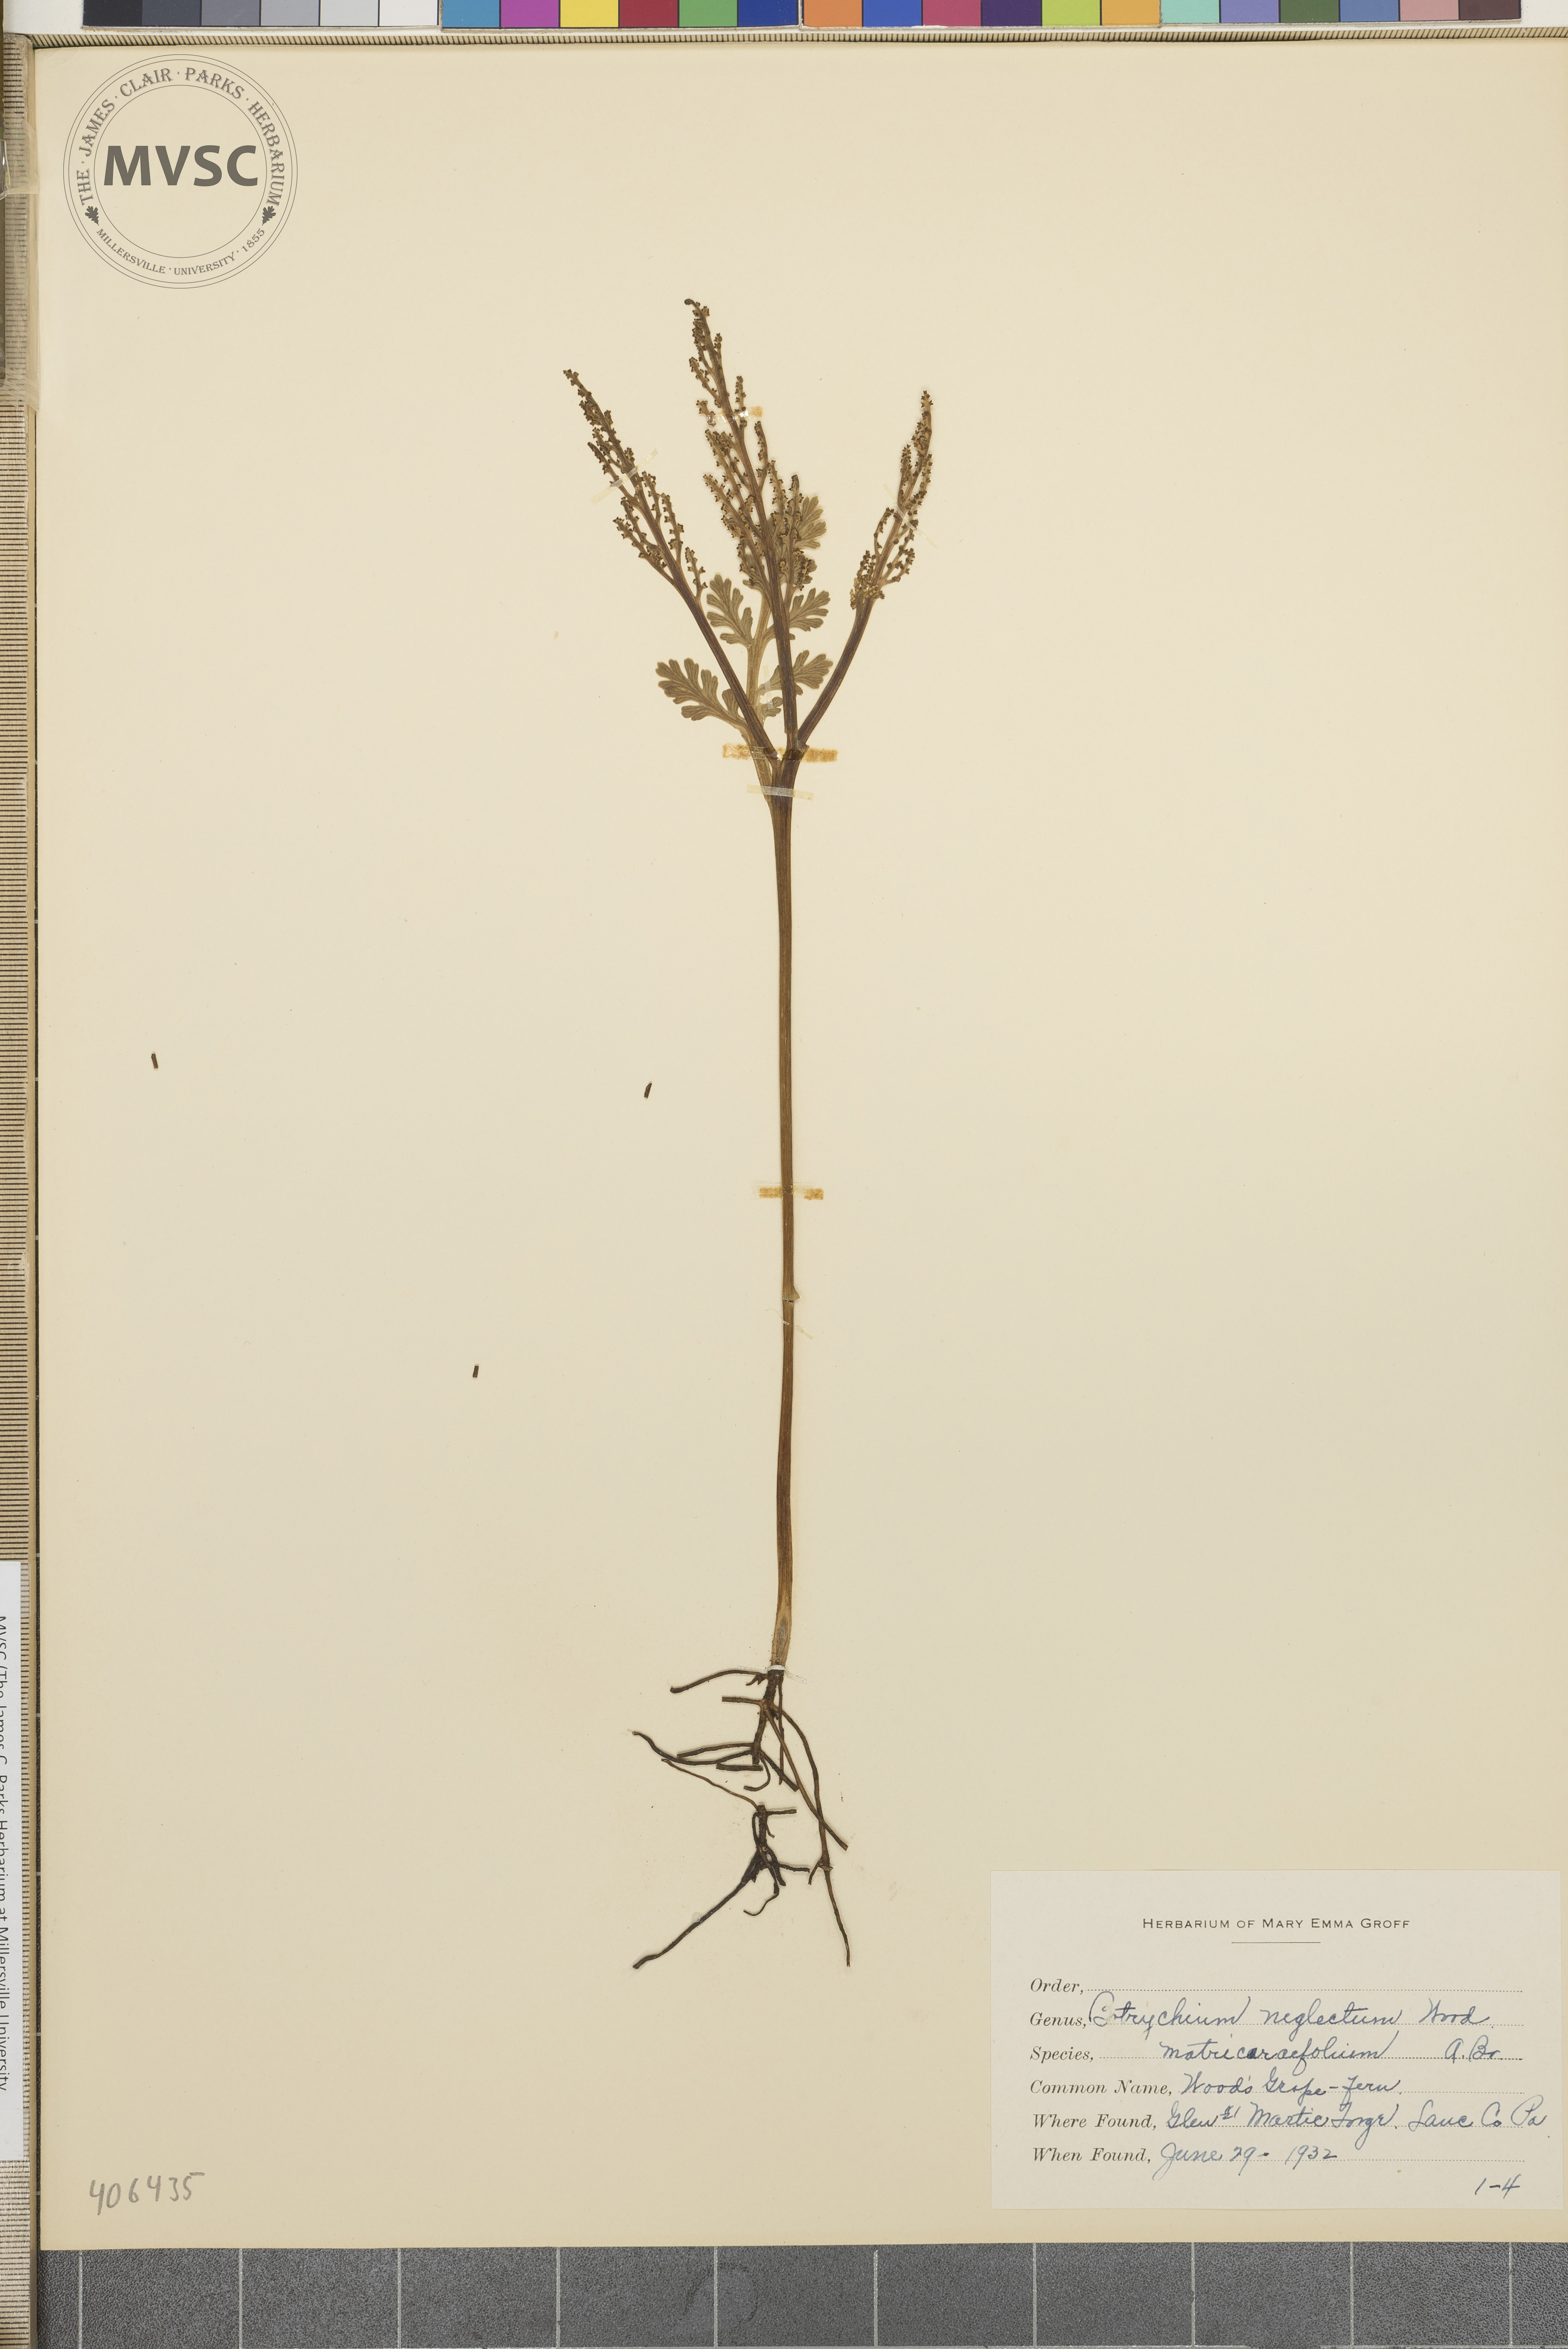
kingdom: Plantae
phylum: Tracheophyta
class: Polypodiopsida
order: Ophioglossales
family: Ophioglossaceae
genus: Botrychium
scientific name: Botrychium matricariifolium
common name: Branched moonwort
